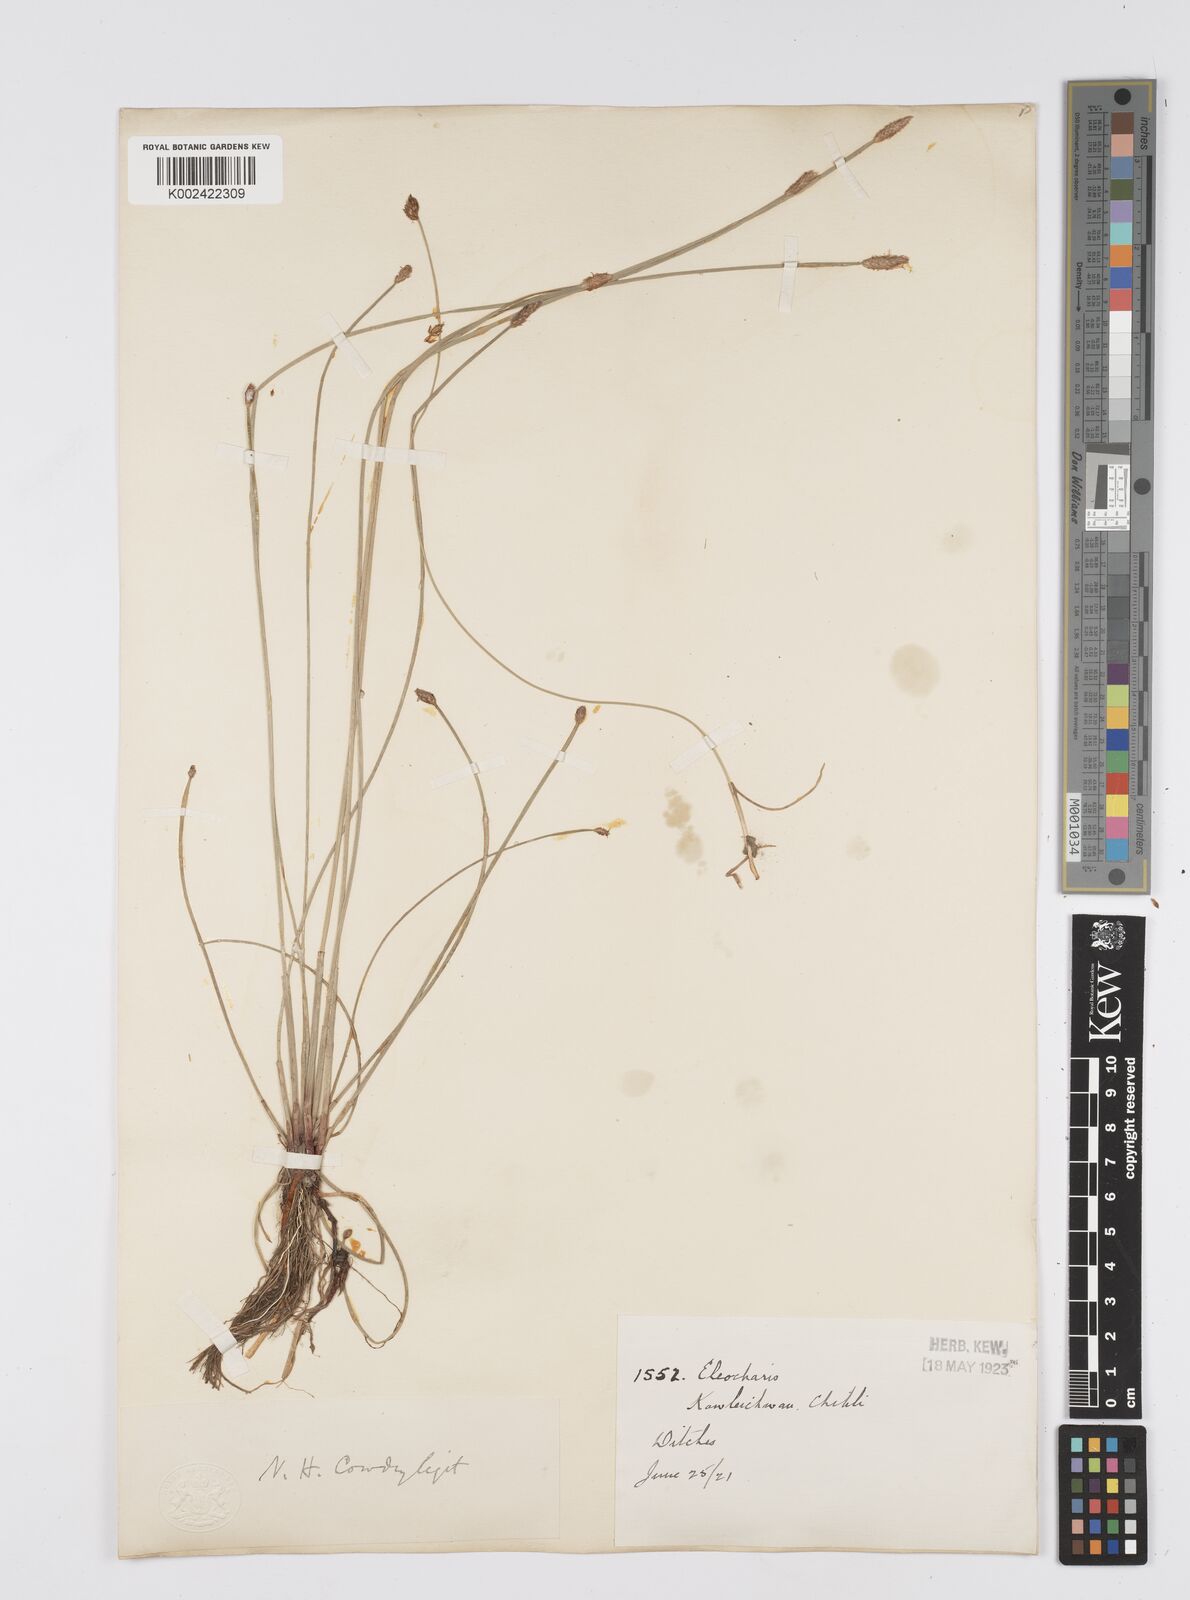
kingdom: Plantae
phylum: Tracheophyta
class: Liliopsida
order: Poales
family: Cyperaceae
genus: Eleocharis
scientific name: Eleocharis
